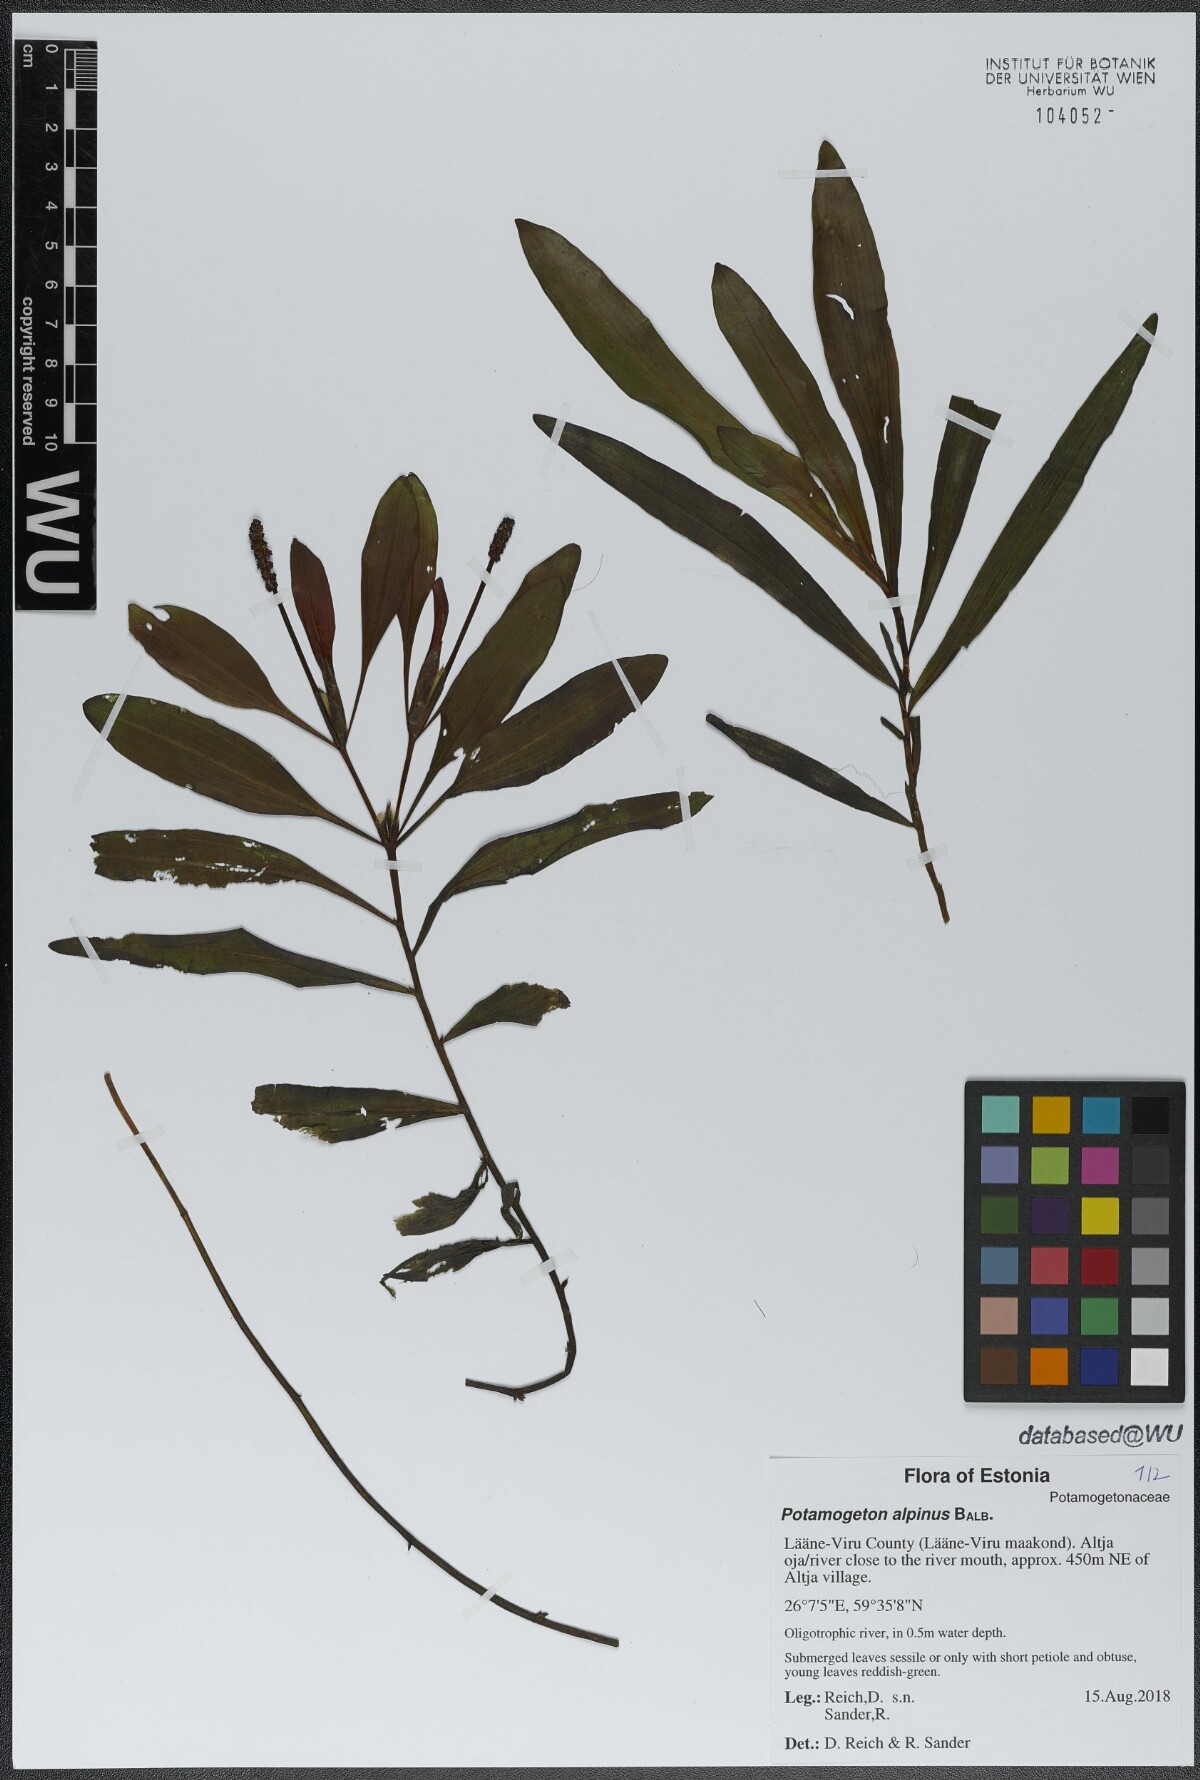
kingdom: Plantae
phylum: Tracheophyta
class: Liliopsida
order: Alismatales
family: Potamogetonaceae
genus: Potamogeton
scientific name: Potamogeton alpinus
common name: Red pondweed
